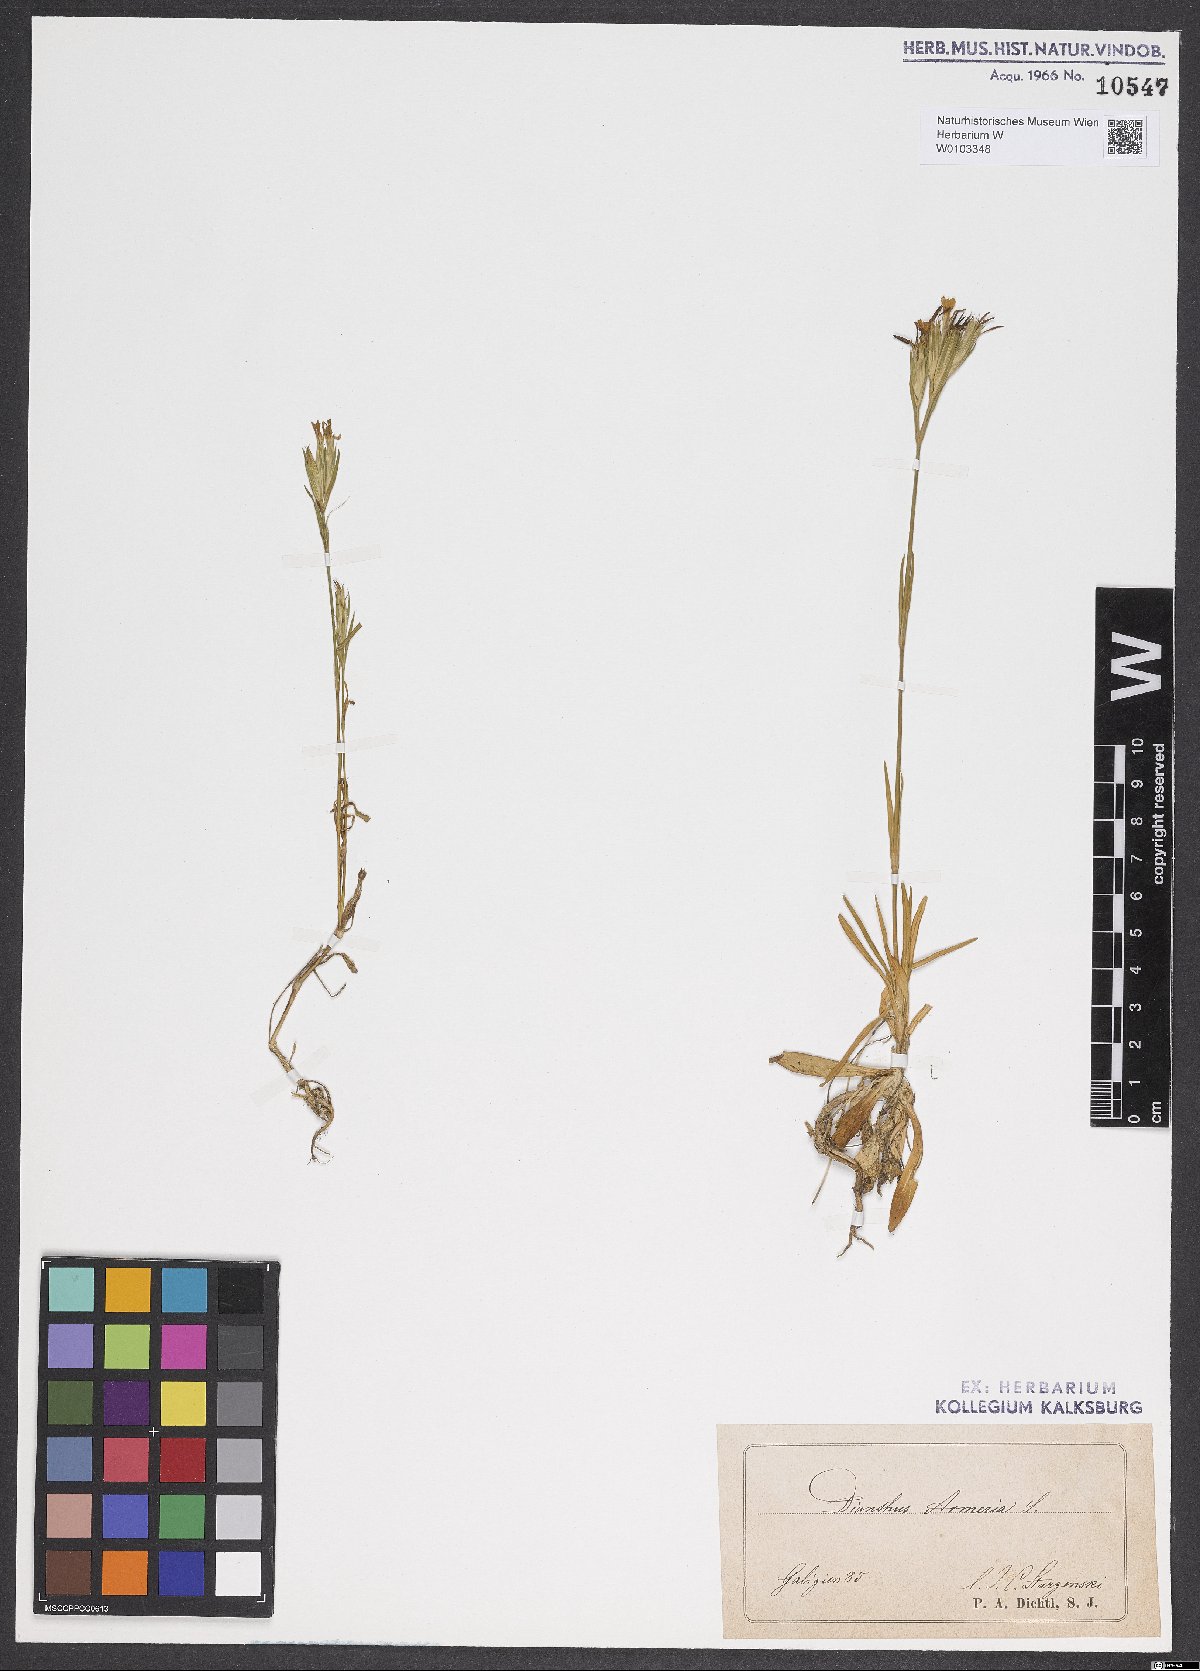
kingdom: Plantae
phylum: Tracheophyta
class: Magnoliopsida
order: Caryophyllales
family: Caryophyllaceae
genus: Dianthus
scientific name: Dianthus armeria
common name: Deptford pink
